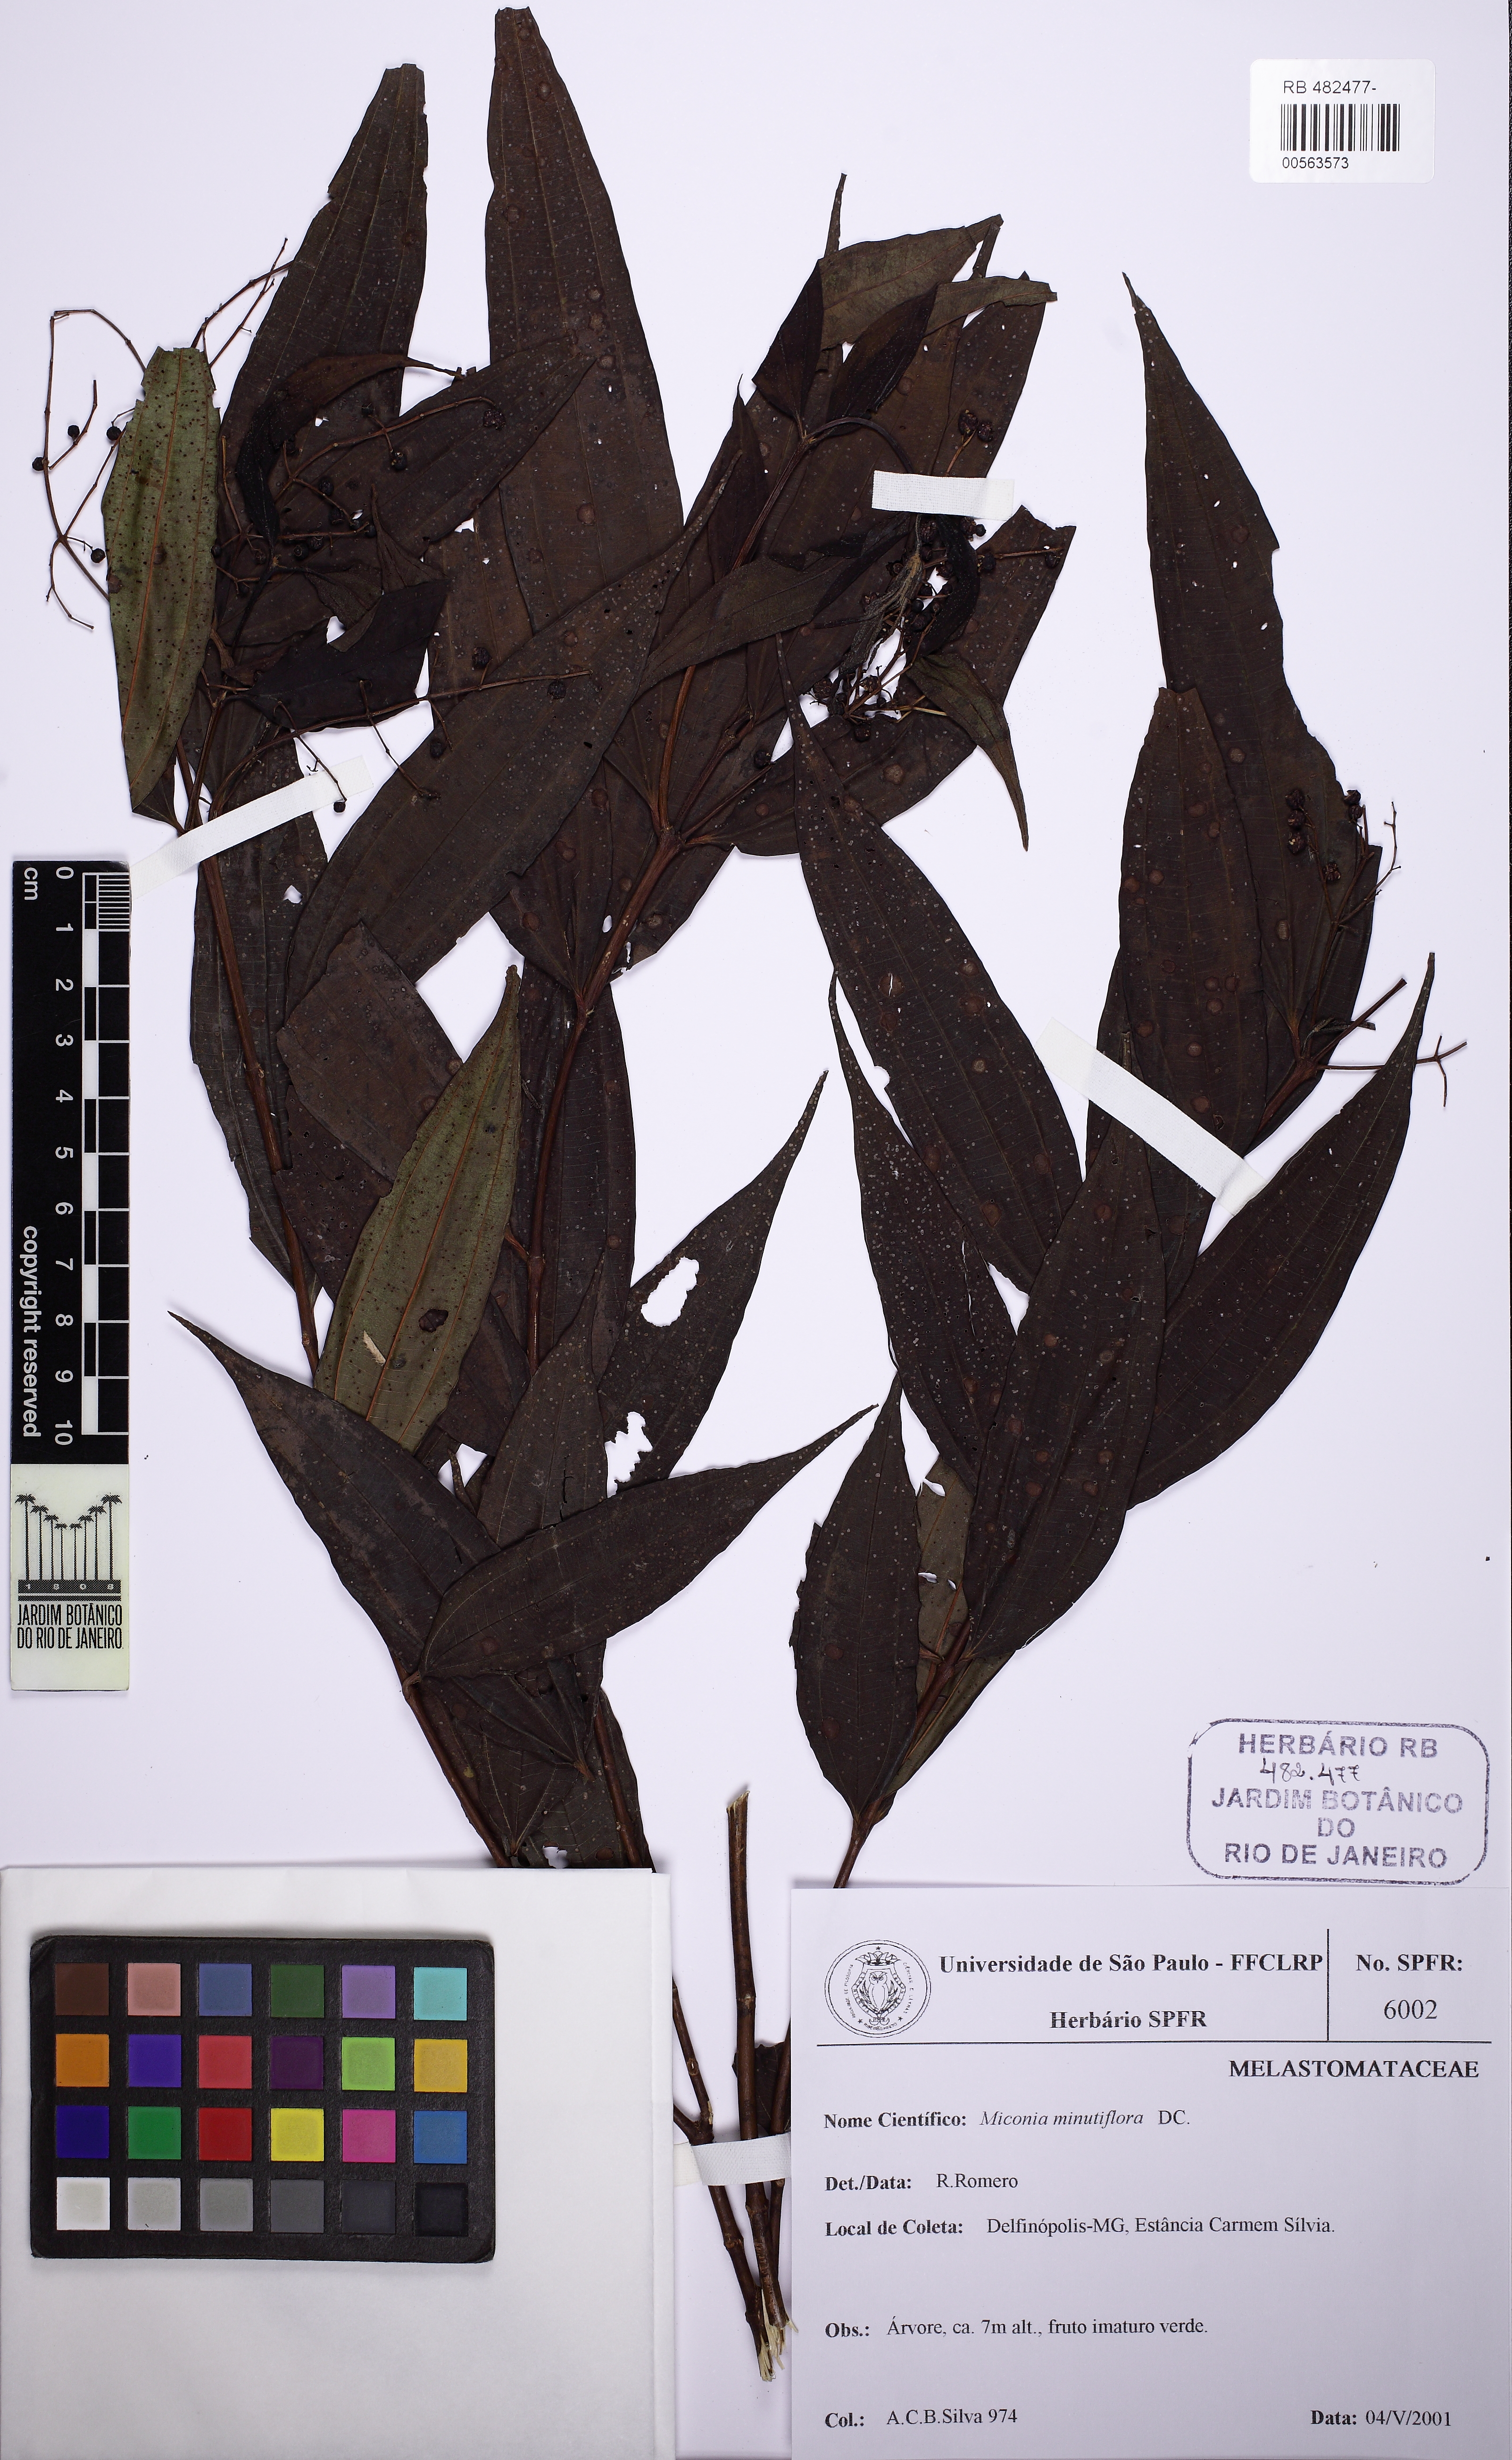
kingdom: Plantae
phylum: Tracheophyta
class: Magnoliopsida
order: Myrtales
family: Melastomataceae
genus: Miconia
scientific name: Miconia minutiflora
